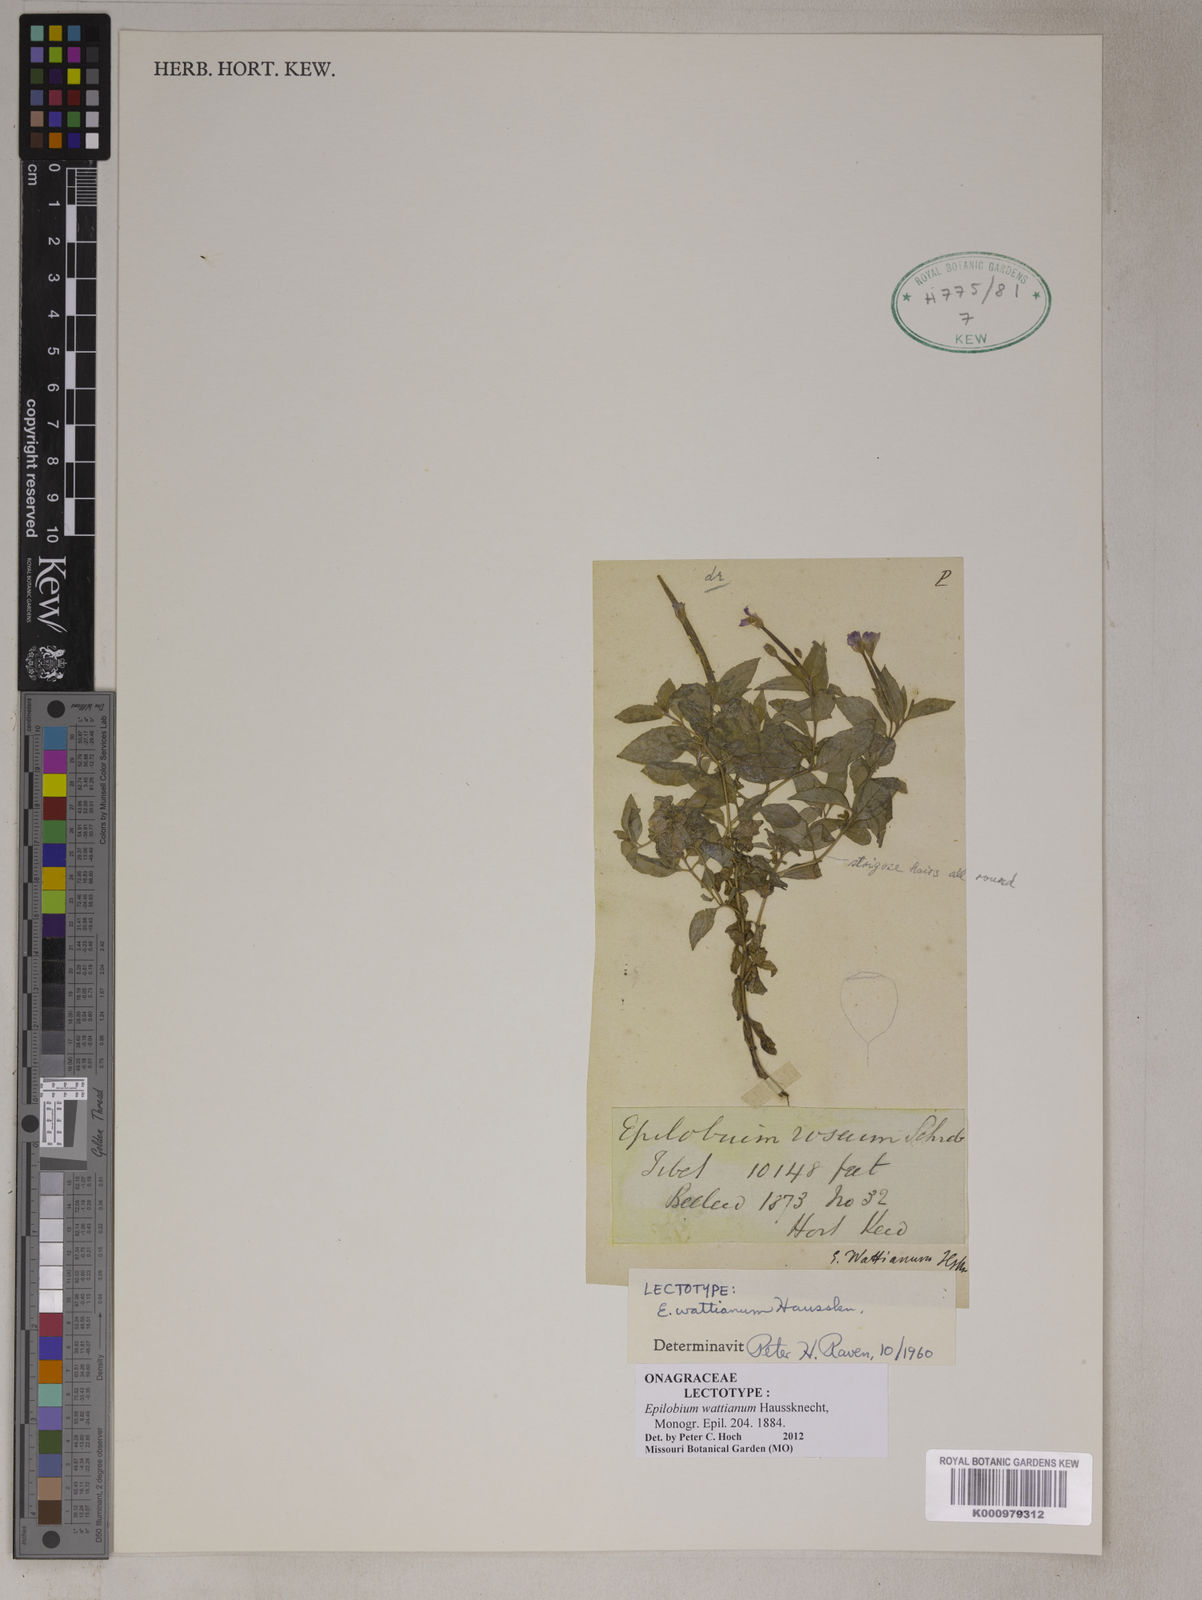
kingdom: Plantae
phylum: Tracheophyta
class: Magnoliopsida
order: Myrtales
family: Onagraceae
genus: Epilobium
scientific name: Epilobium wattianum
